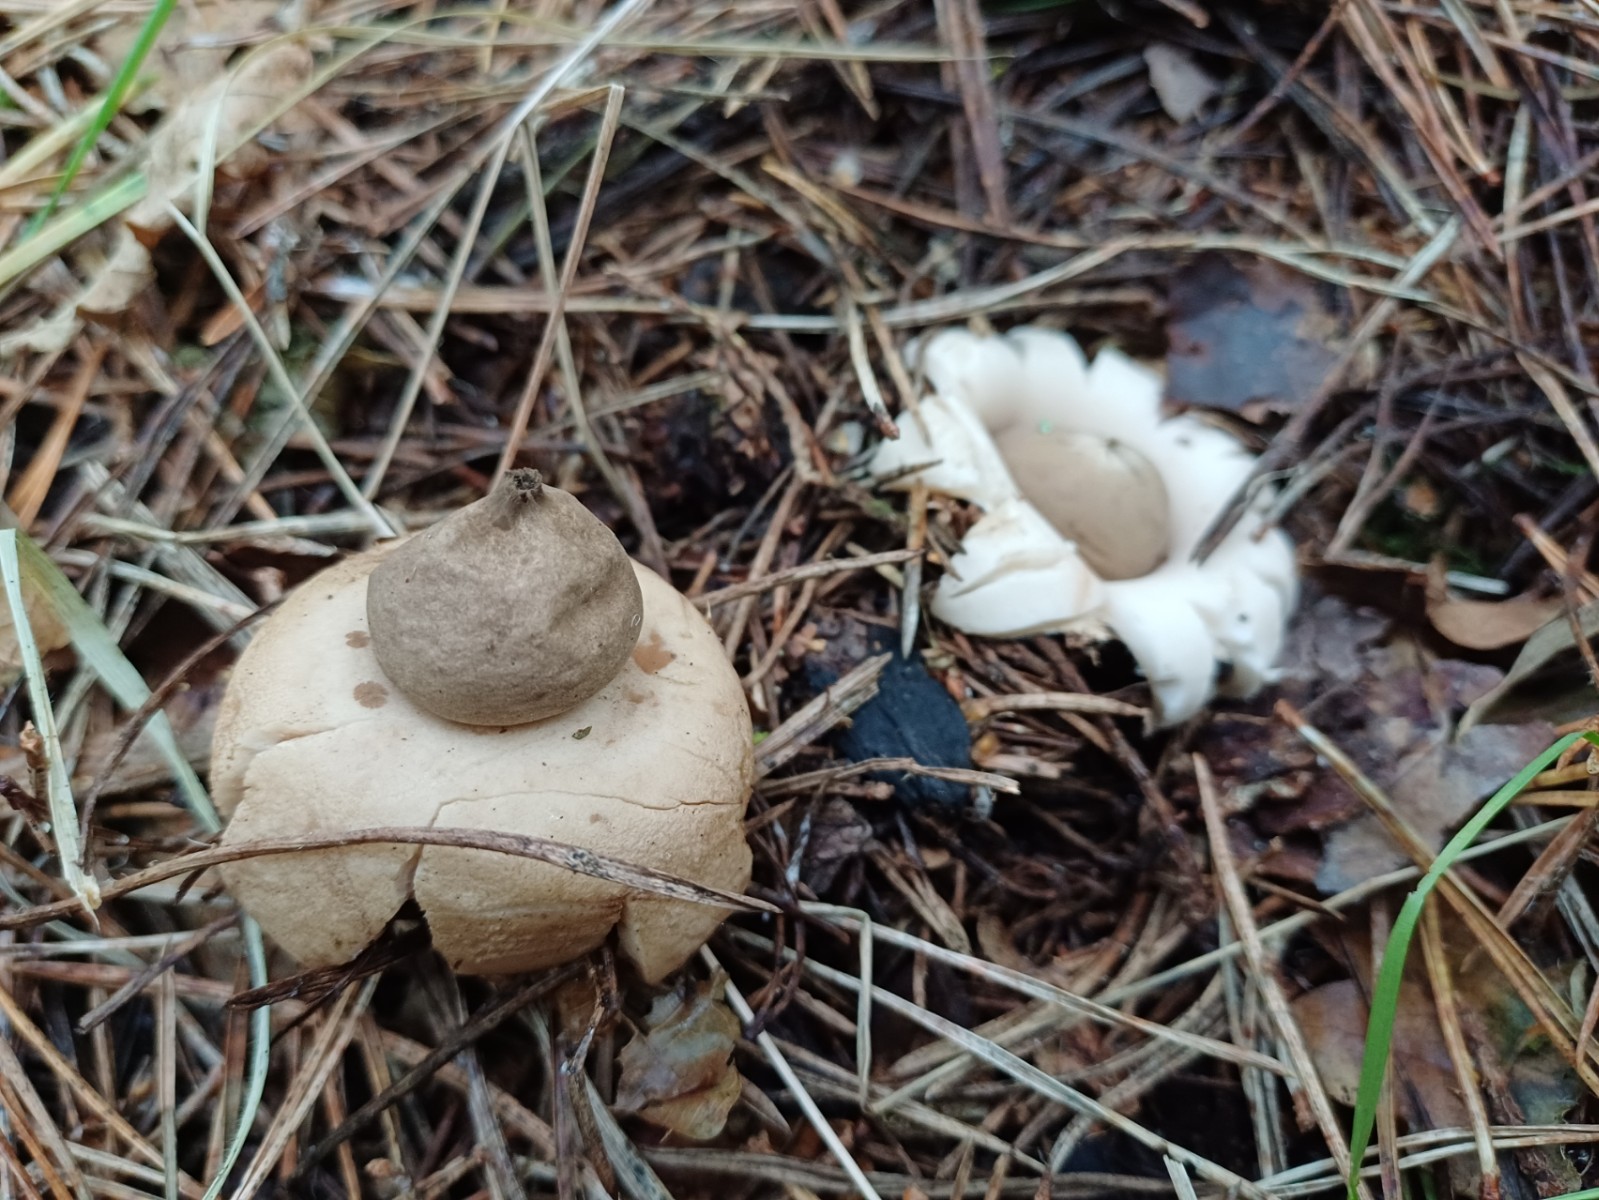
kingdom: Fungi
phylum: Basidiomycota
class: Agaricomycetes
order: Geastrales
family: Geastraceae
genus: Geastrum
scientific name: Geastrum fimbriatum
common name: frynset stjernebold
